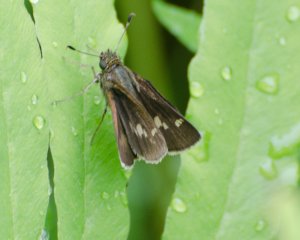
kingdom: Animalia
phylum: Arthropoda
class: Insecta
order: Lepidoptera
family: Hesperiidae
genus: Polites
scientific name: Polites egeremet
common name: Northern Broken-Dash
